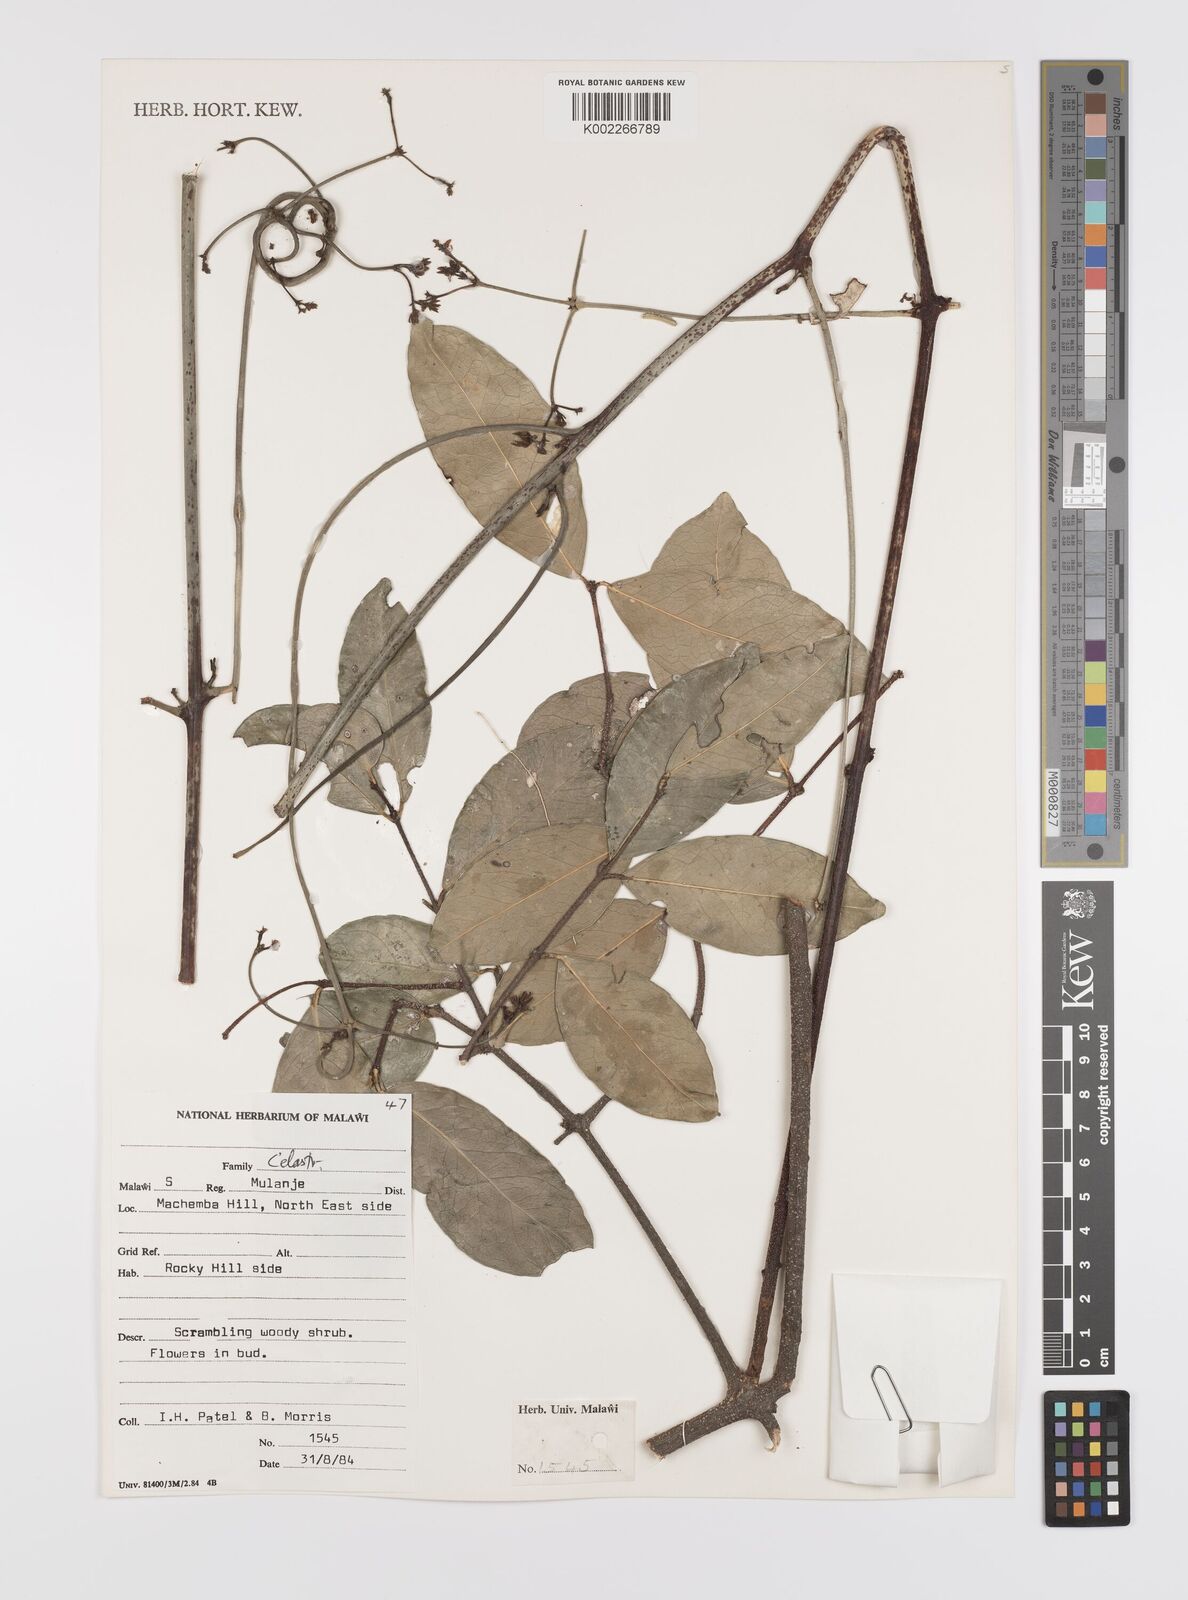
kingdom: Plantae
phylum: Tracheophyta
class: Magnoliopsida
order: Celastrales
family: Celastraceae
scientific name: Celastraceae
